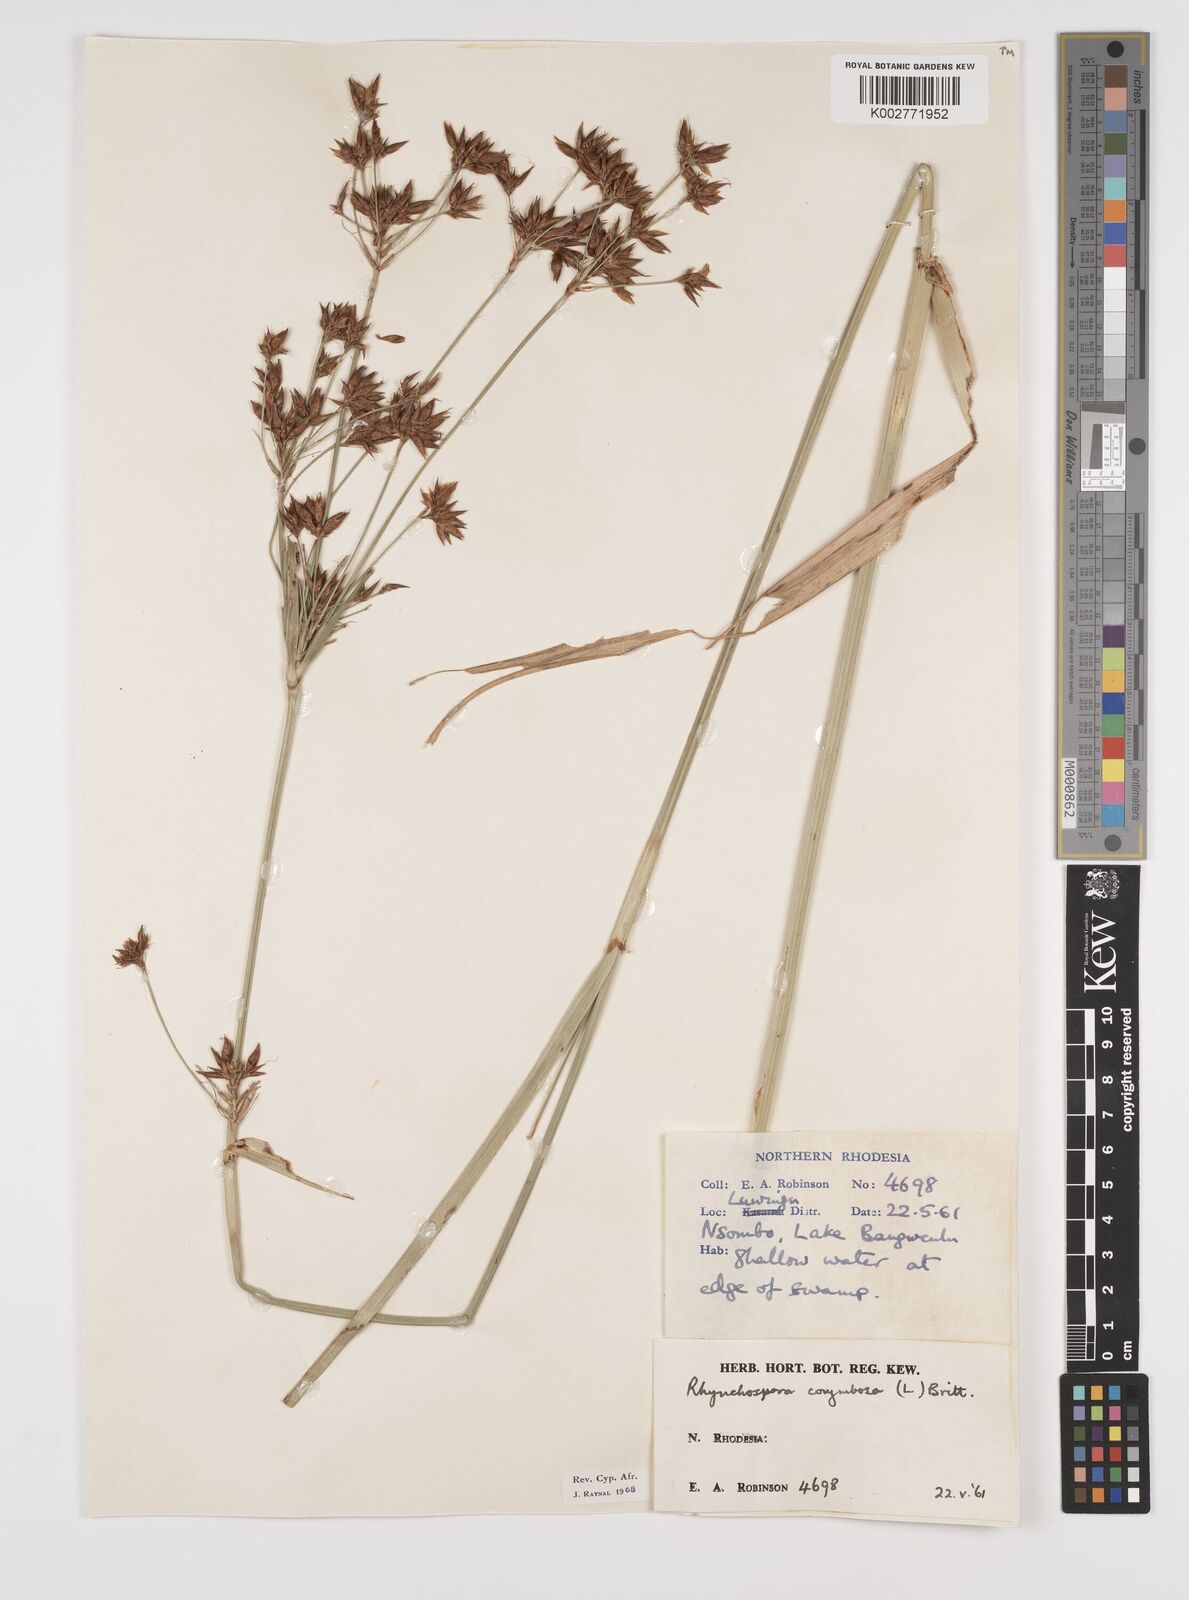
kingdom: Plantae
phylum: Tracheophyta
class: Liliopsida
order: Poales
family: Cyperaceae
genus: Rhynchospora
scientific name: Rhynchospora corymbosa
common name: Golden beak sedge
